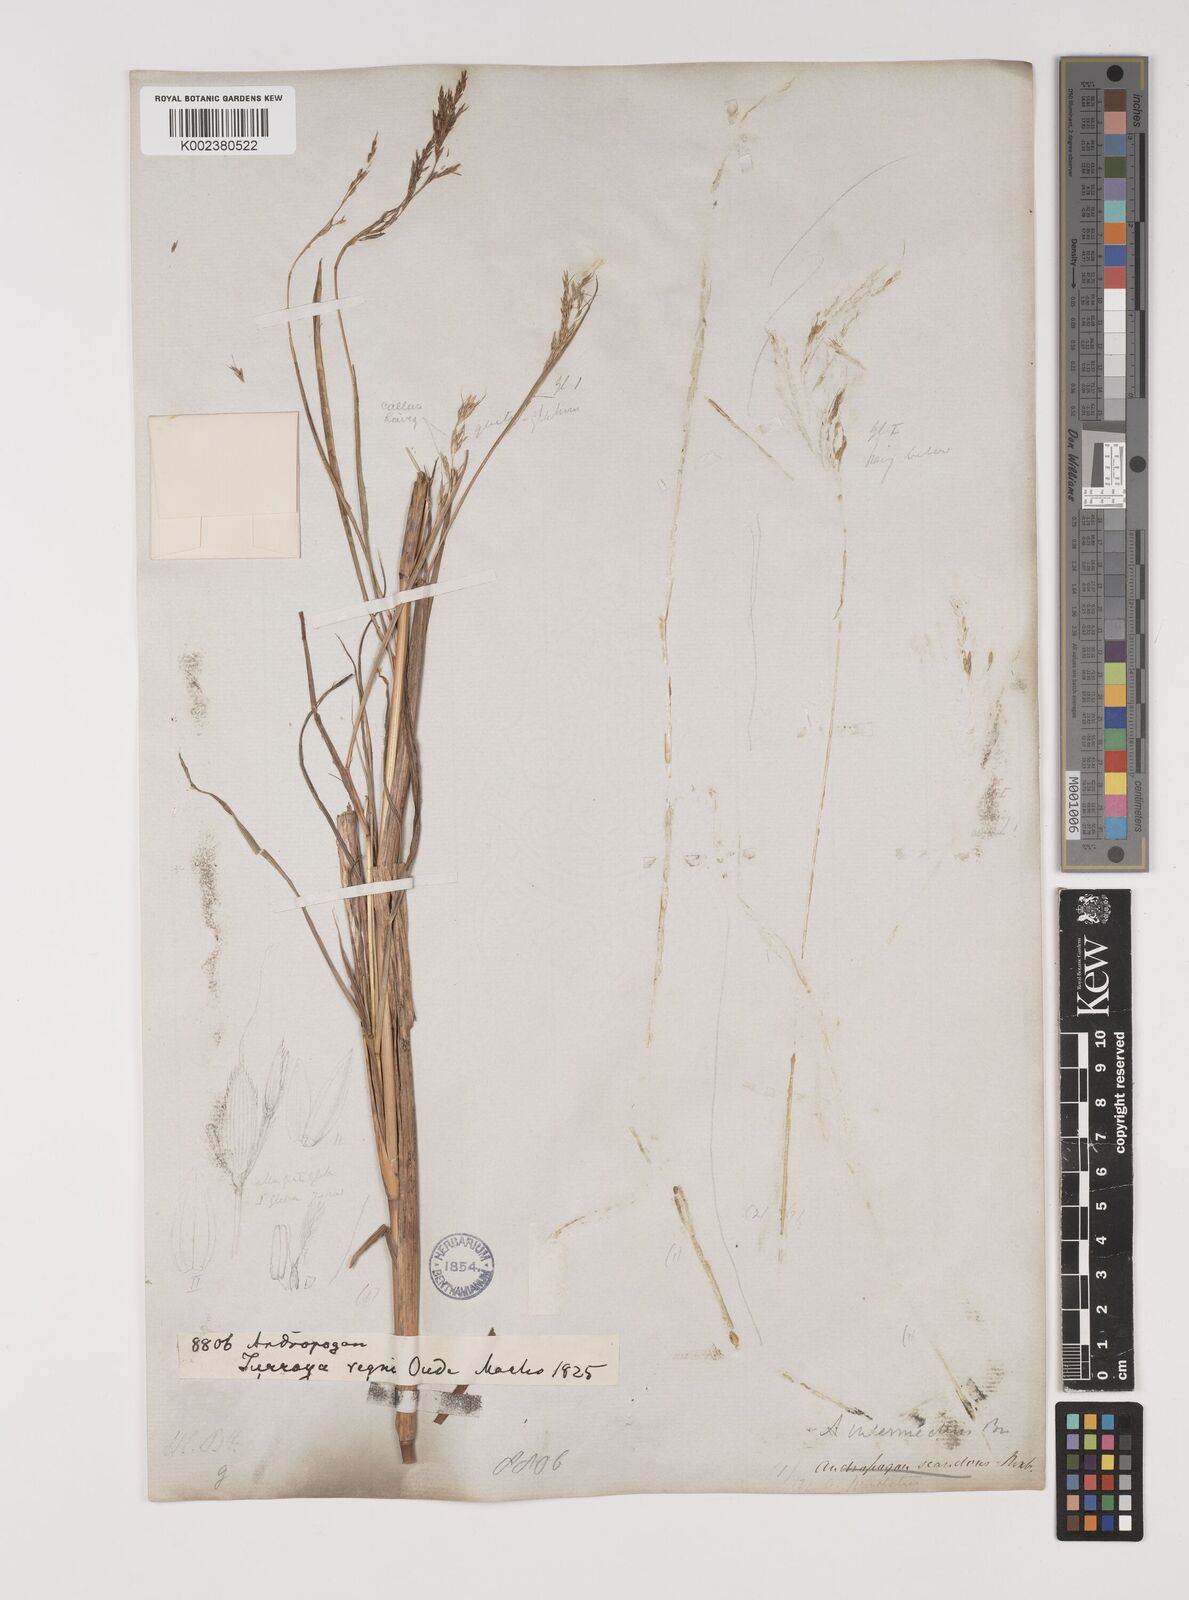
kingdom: Plantae
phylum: Tracheophyta
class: Liliopsida
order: Poales
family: Poaceae
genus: Bothriochloa
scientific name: Bothriochloa bladhii
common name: Caucasian bluestem
